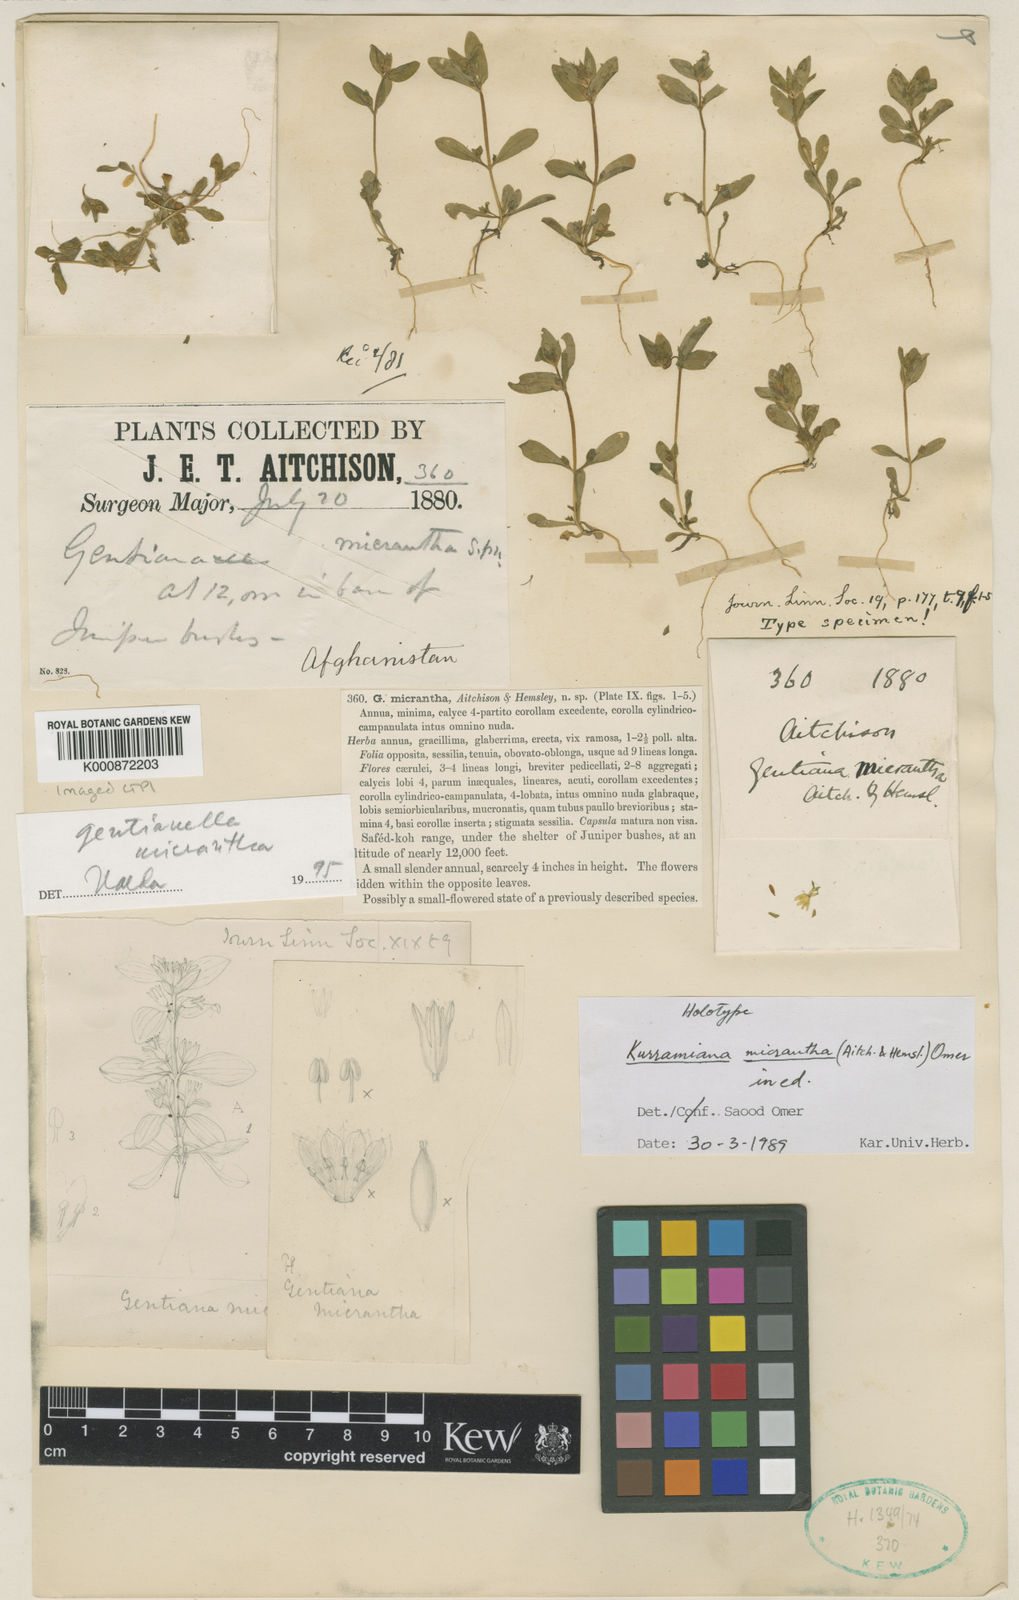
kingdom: Plantae
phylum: Tracheophyta
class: Magnoliopsida
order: Gentianales
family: Gentianaceae
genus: Gentianella
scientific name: Gentianella
